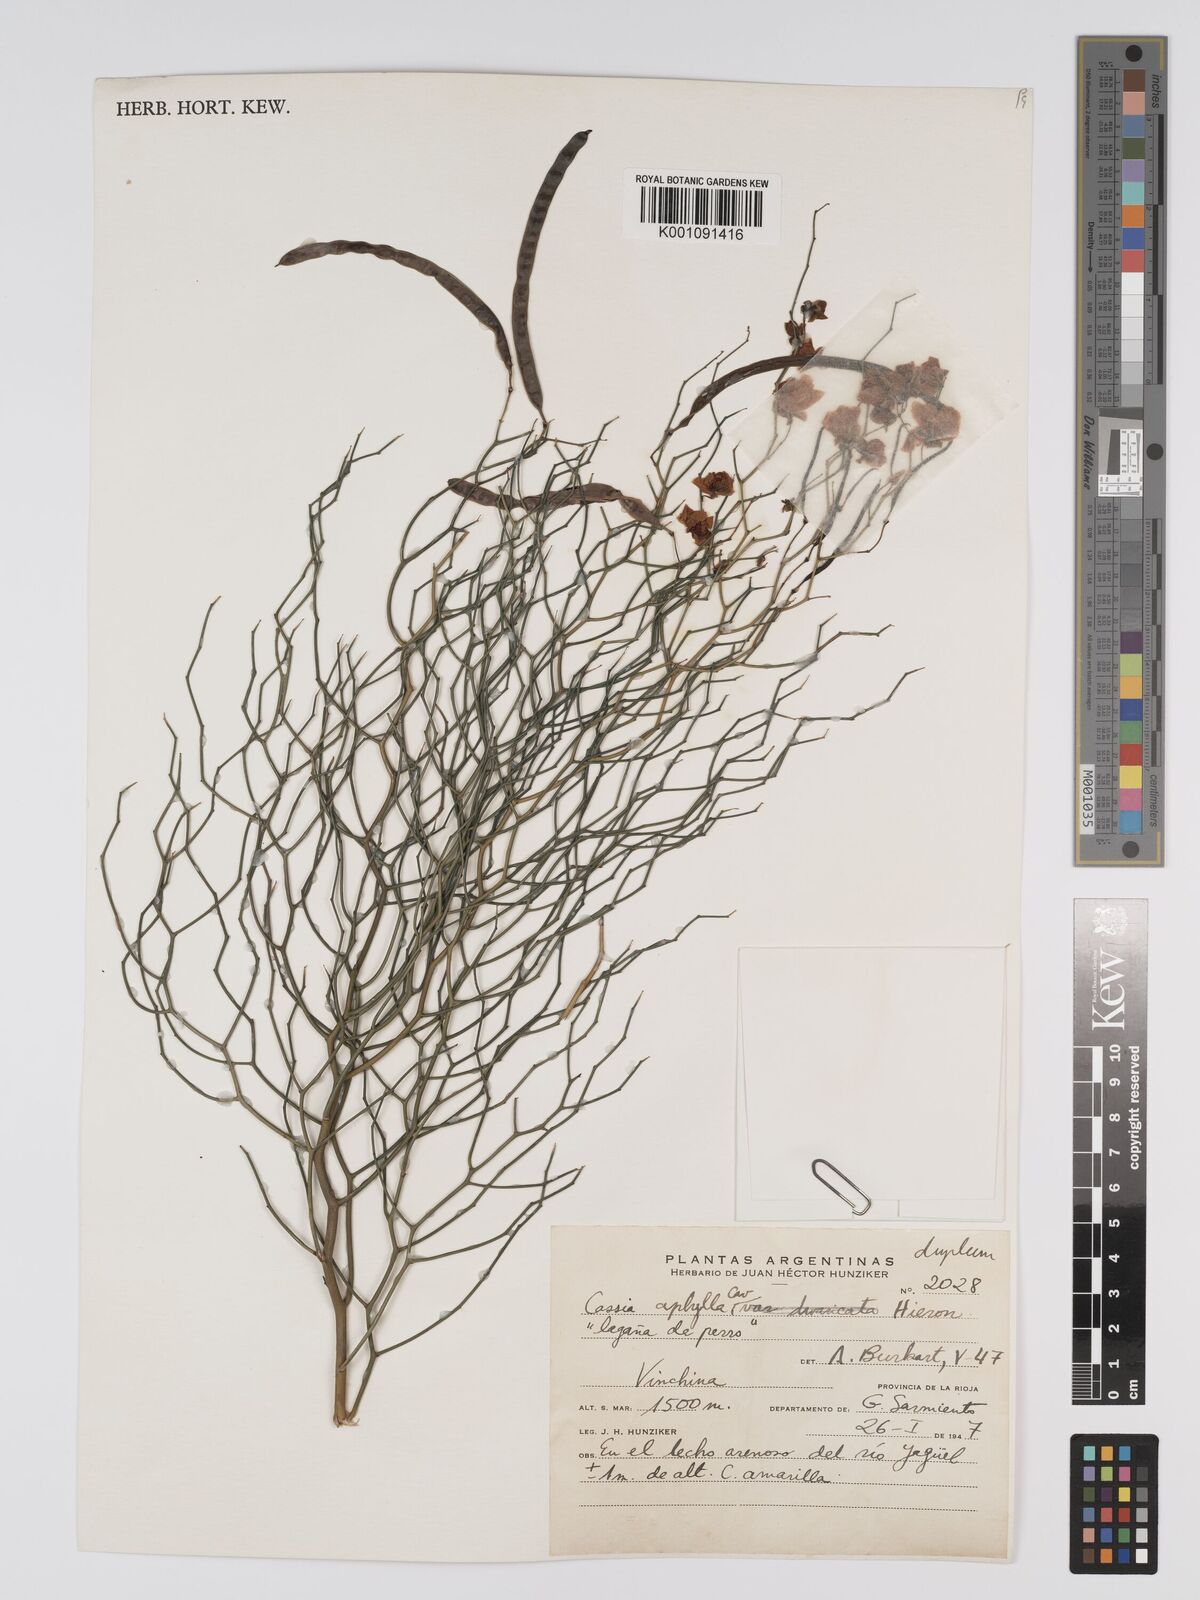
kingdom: Plantae
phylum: Tracheophyta
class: Magnoliopsida
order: Fabales
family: Fabaceae
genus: Senna
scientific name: Senna aphylla
